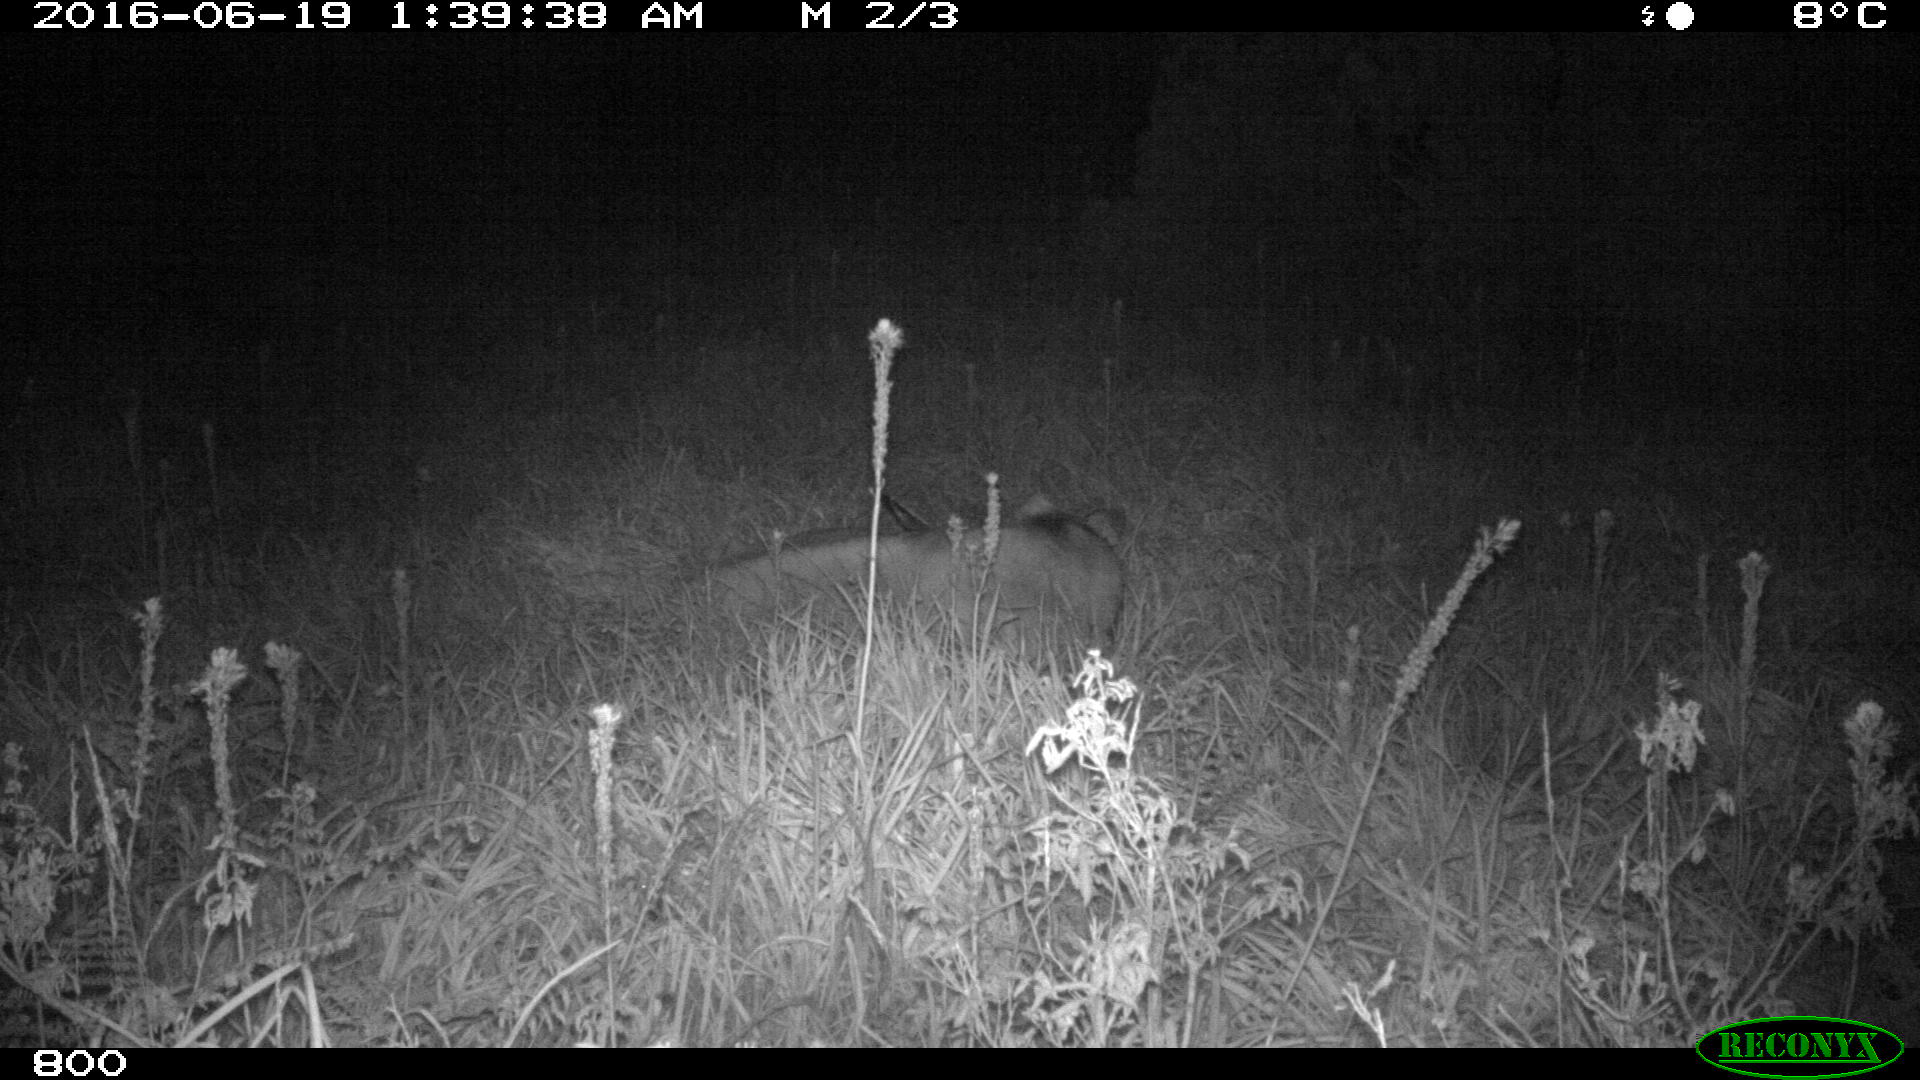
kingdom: Animalia
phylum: Chordata
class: Mammalia
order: Artiodactyla
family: Bovidae
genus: Bos
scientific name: Bos taurus
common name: Domesticated cattle
